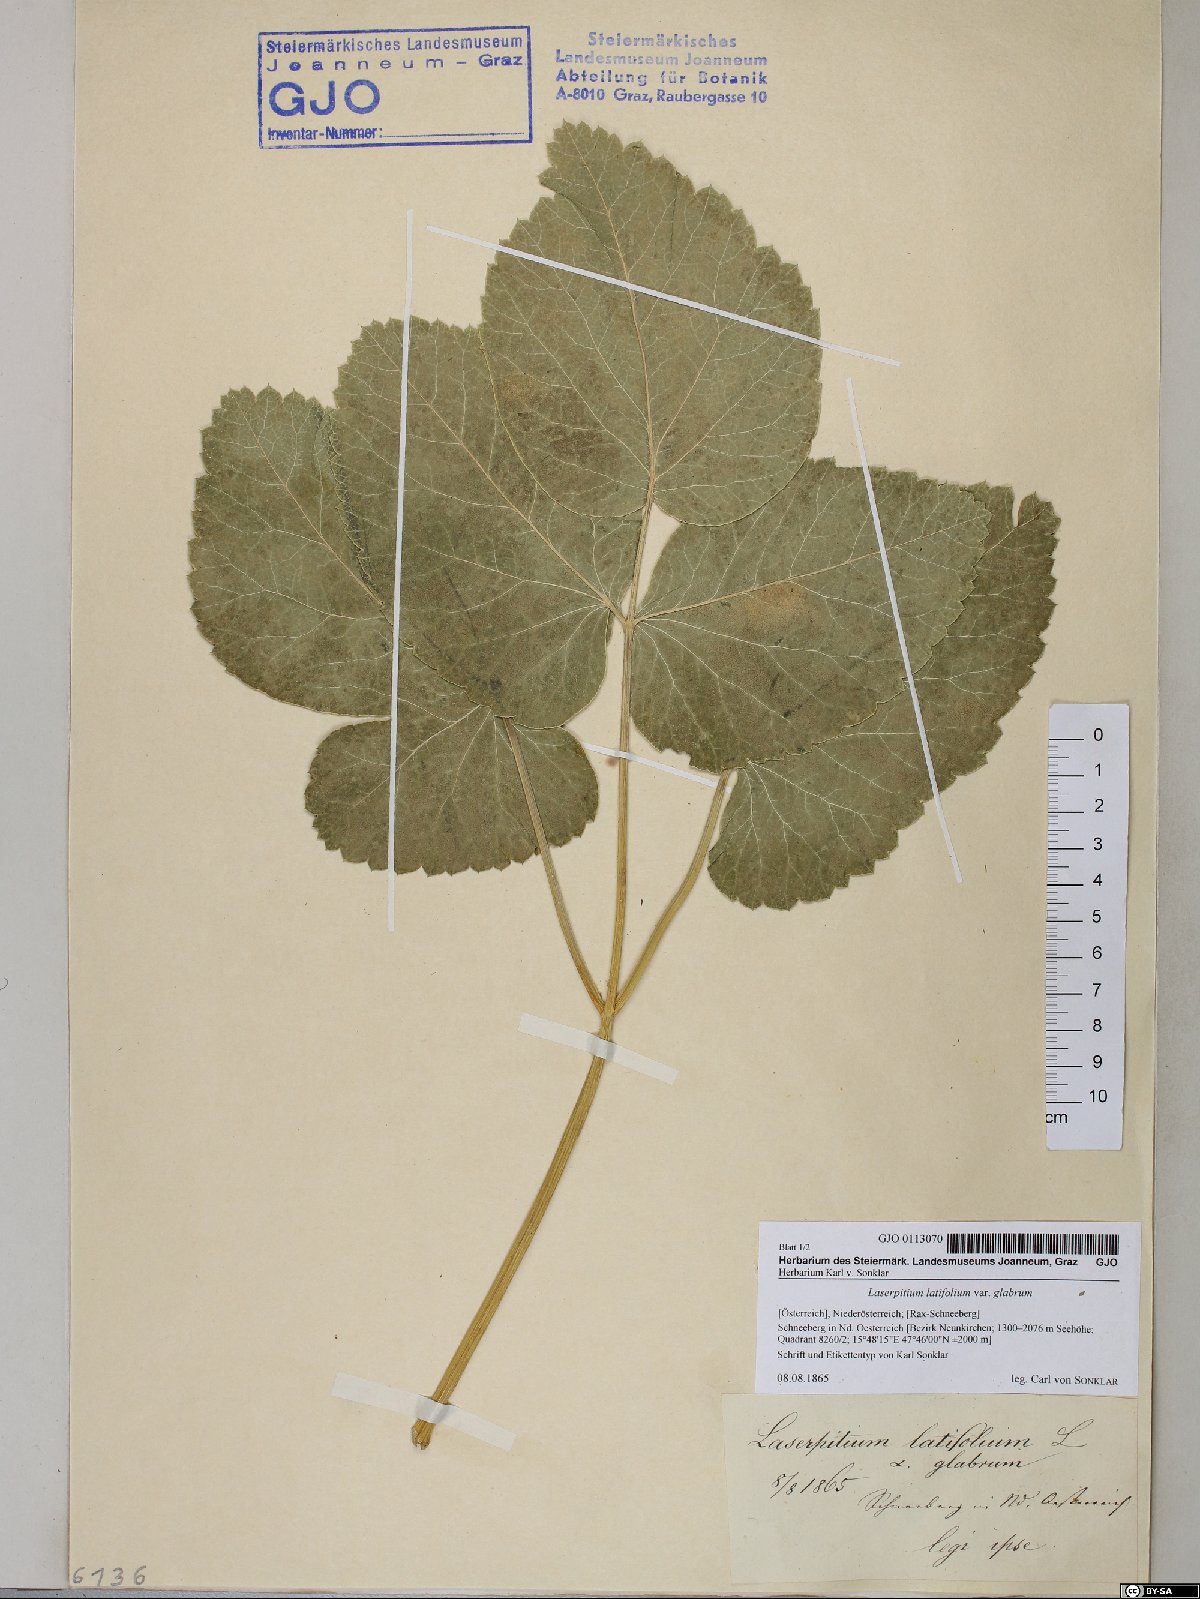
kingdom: Plantae
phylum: Tracheophyta
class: Magnoliopsida
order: Apiales
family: Apiaceae
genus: Laserpitium
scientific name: Laserpitium latifolium
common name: Broadleaf sermountain
